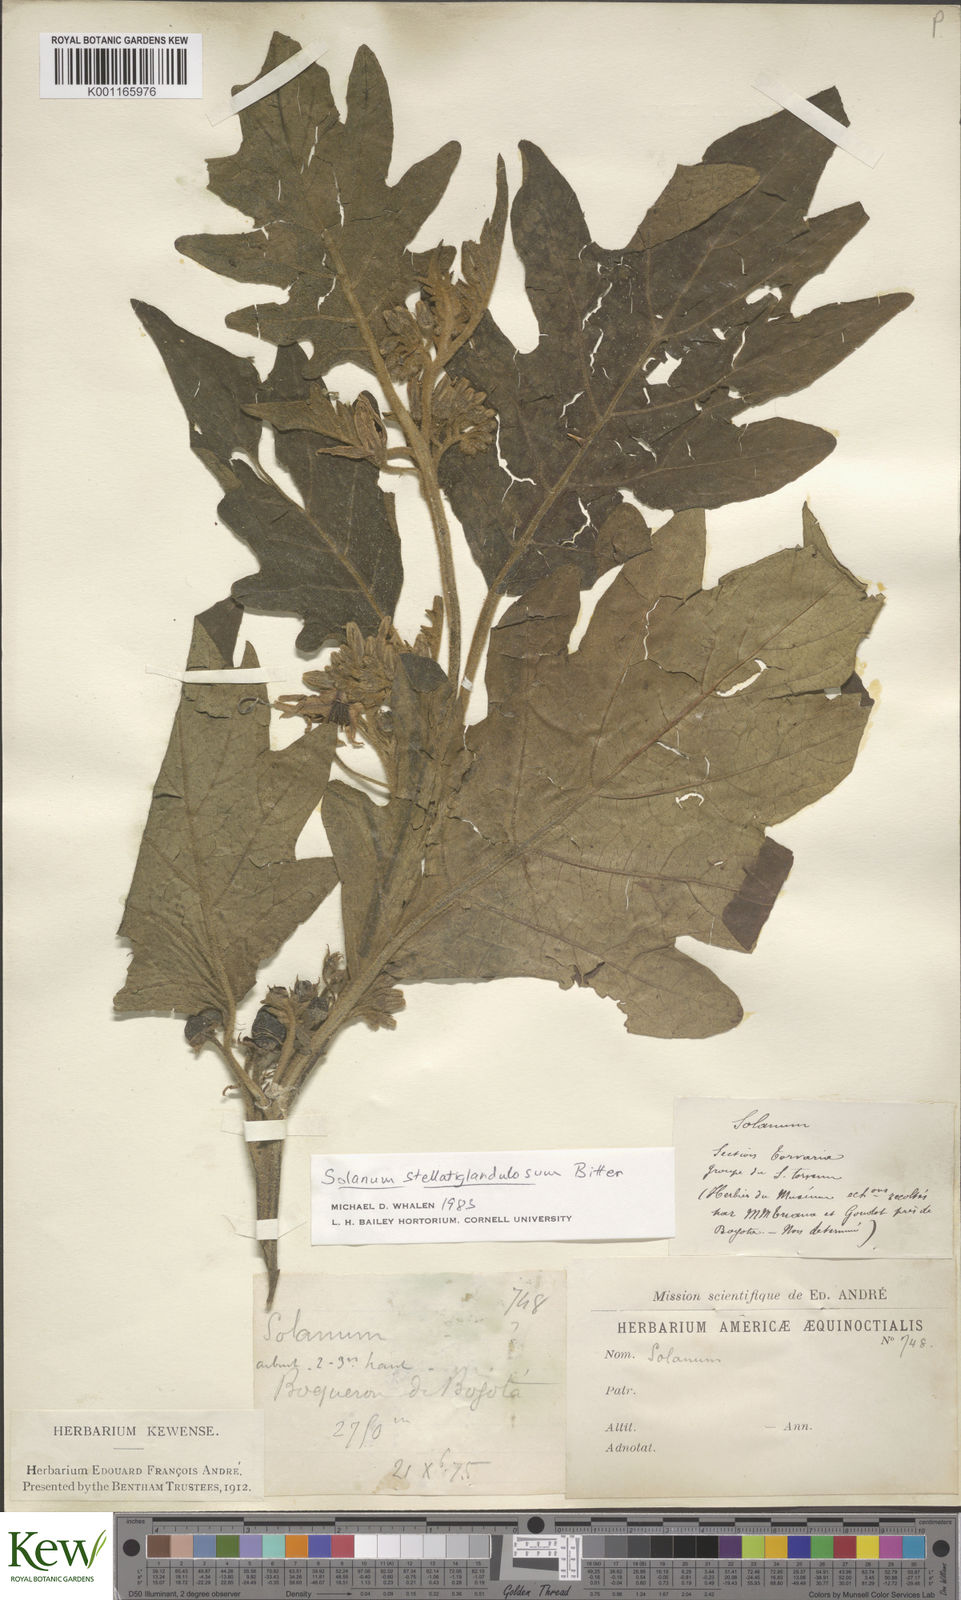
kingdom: Plantae
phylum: Tracheophyta
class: Magnoliopsida
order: Solanales
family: Solanaceae
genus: Solanum
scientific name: Solanum stellatiglandulosum
